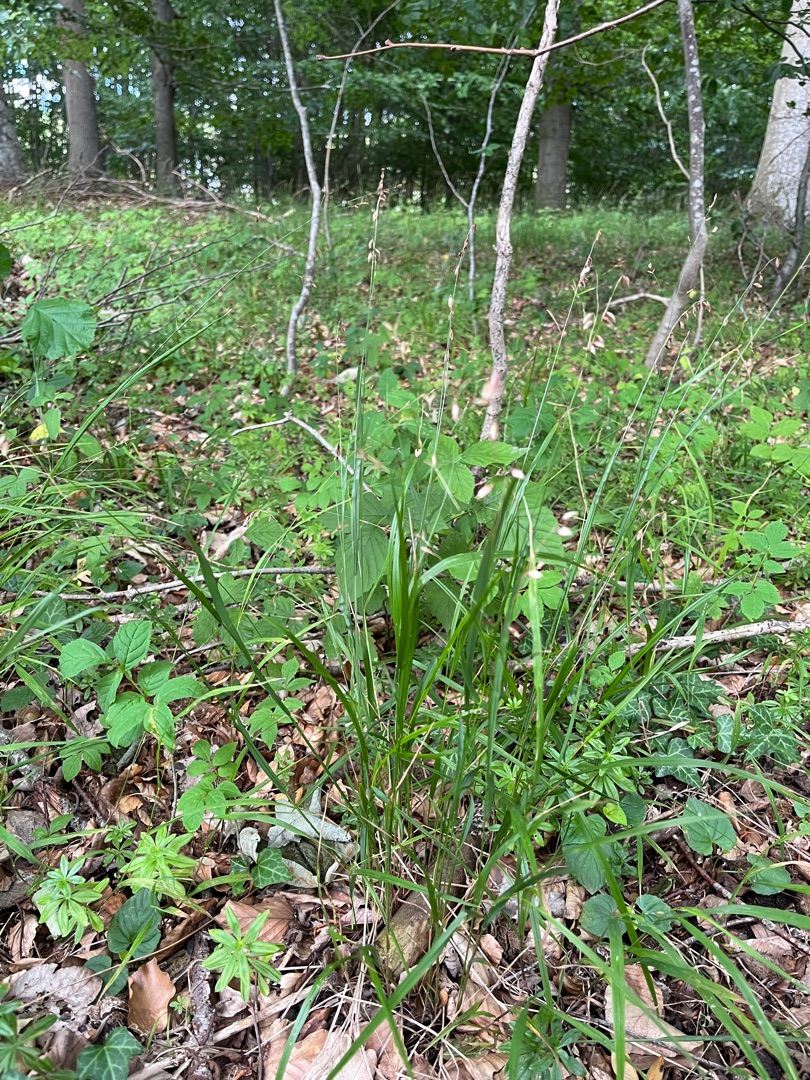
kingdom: Plantae
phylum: Tracheophyta
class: Liliopsida
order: Poales
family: Poaceae
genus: Melica
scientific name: Melica nutans
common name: Nikkende flitteraks
